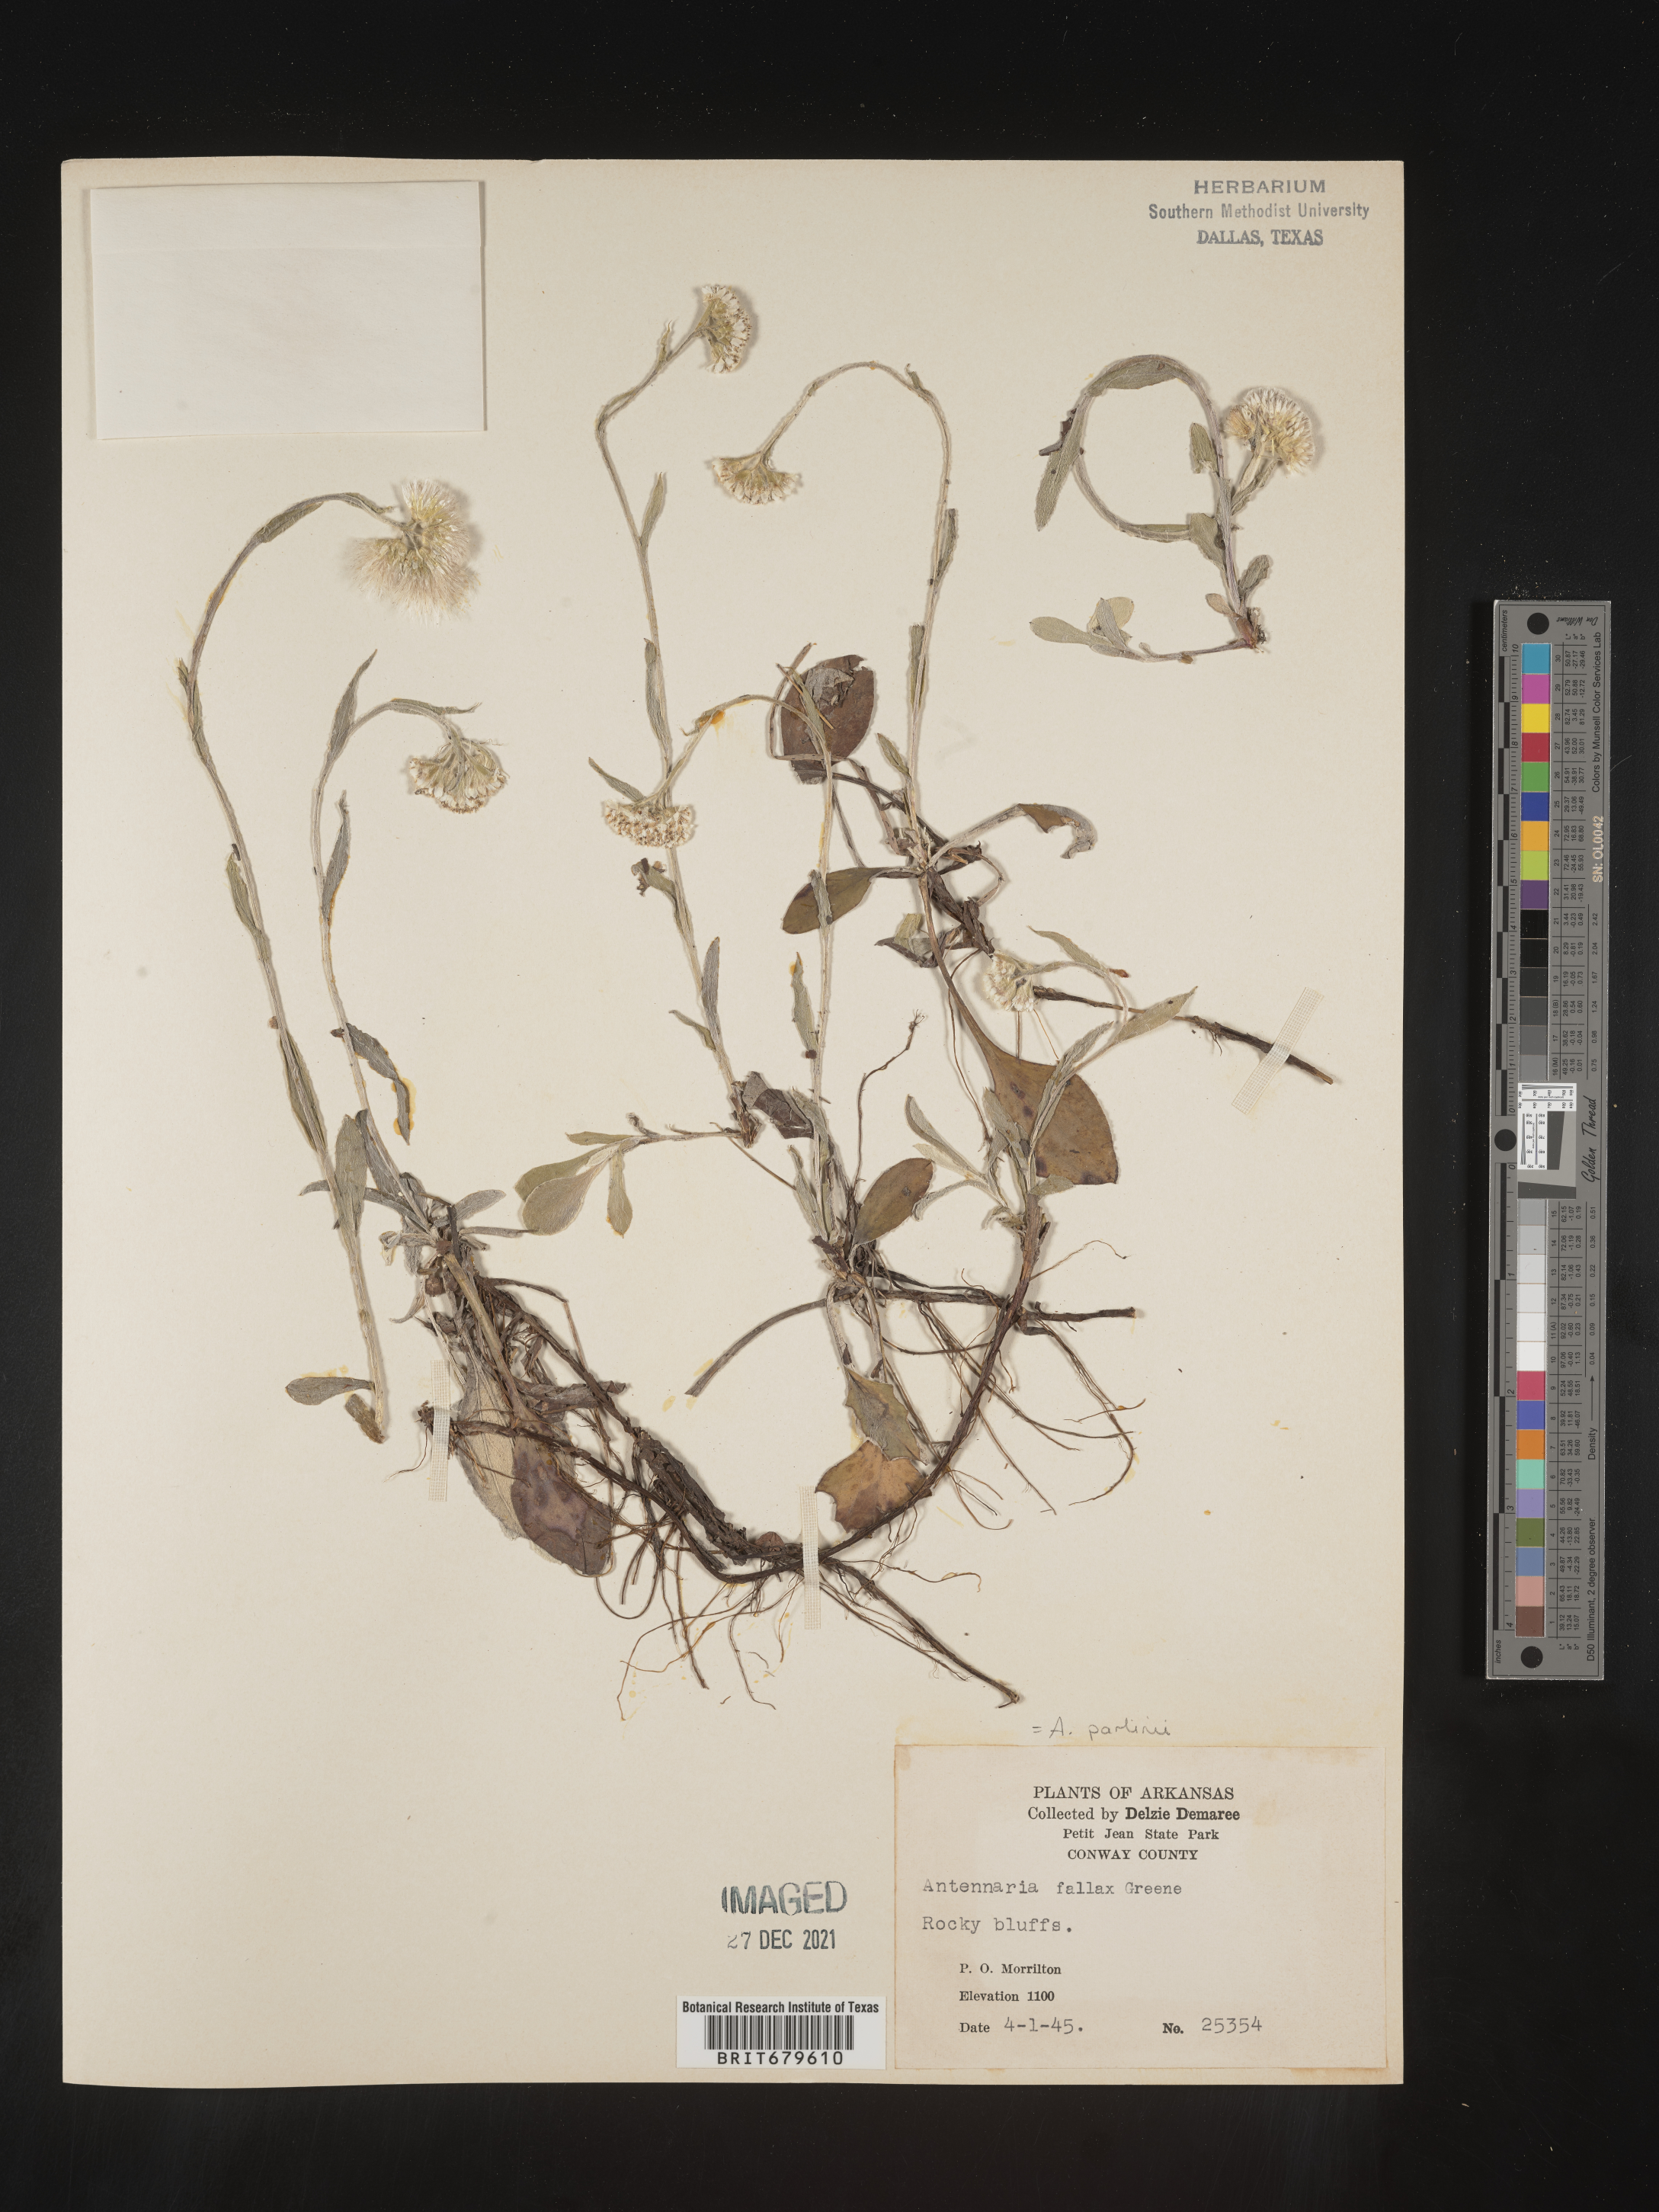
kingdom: Plantae
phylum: Tracheophyta
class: Magnoliopsida
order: Asterales
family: Asteraceae
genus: Antennaria
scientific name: Antennaria parlinii
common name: Parlin's pussytoes
